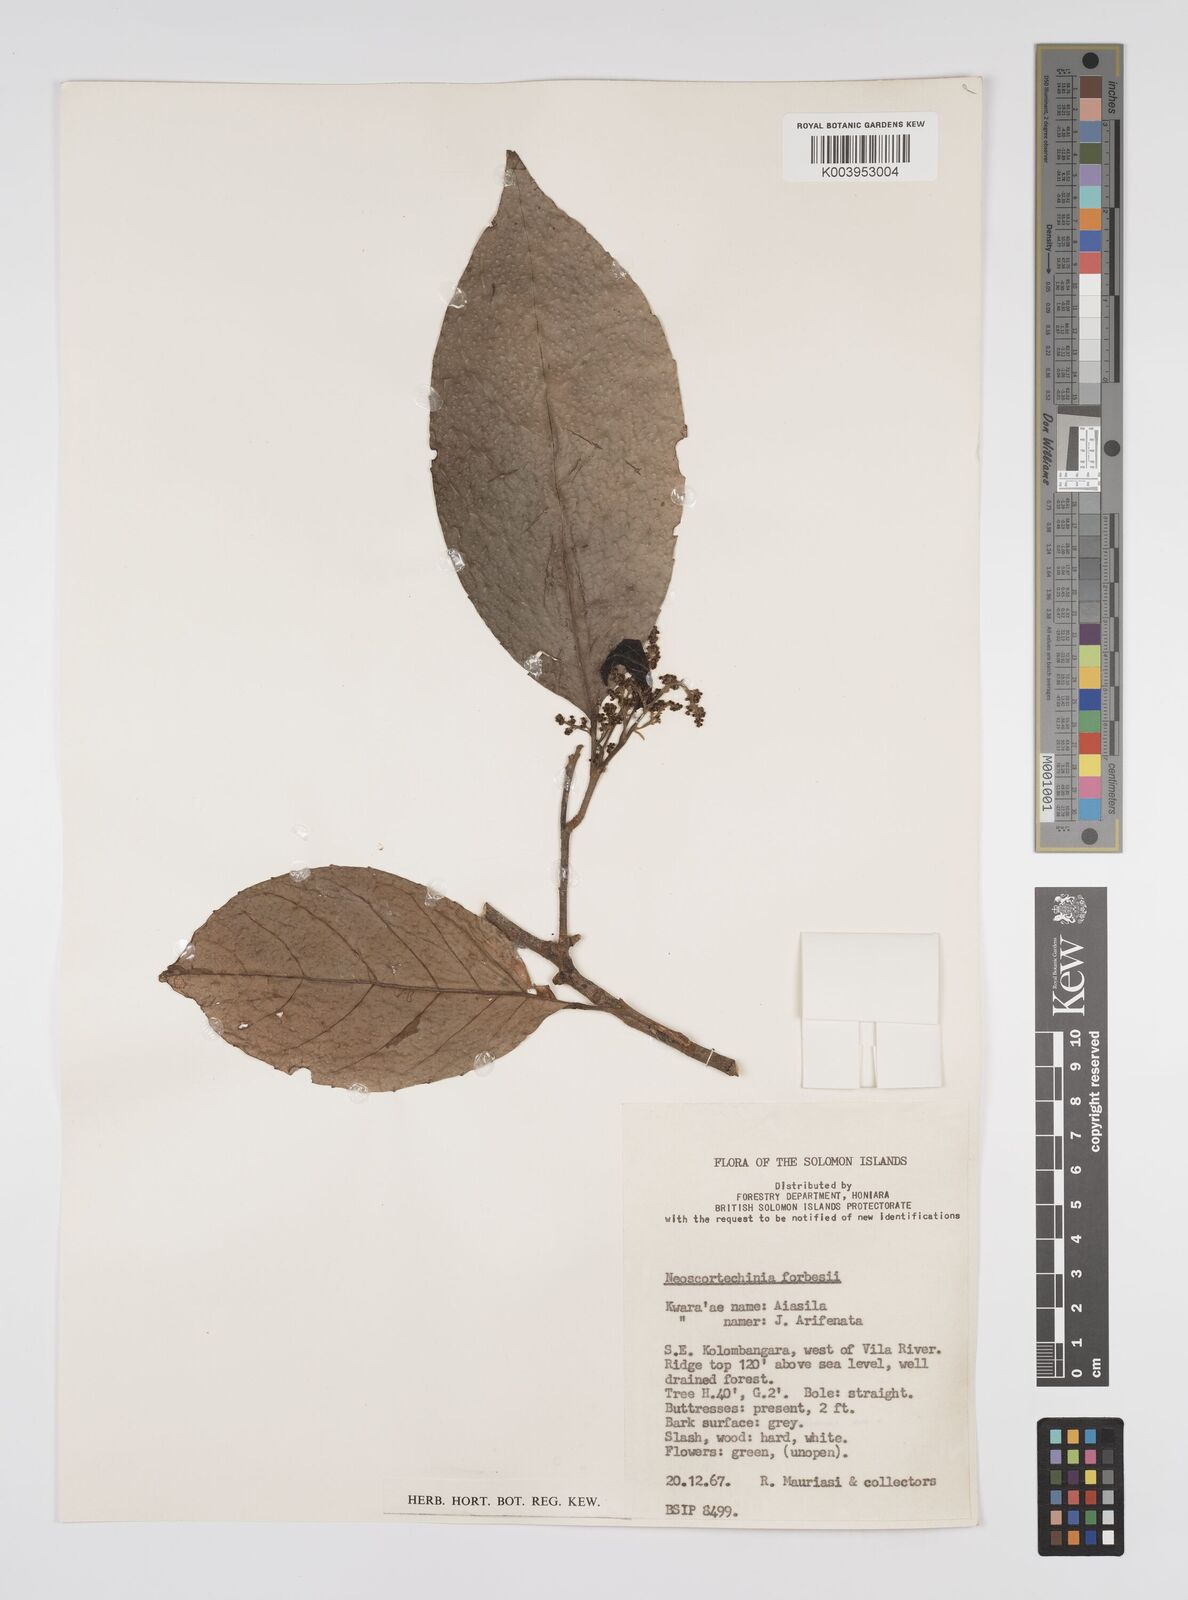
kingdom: Plantae
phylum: Tracheophyta
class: Magnoliopsida
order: Malpighiales
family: Euphorbiaceae
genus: Neoscortechinia
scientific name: Neoscortechinia forbesii
